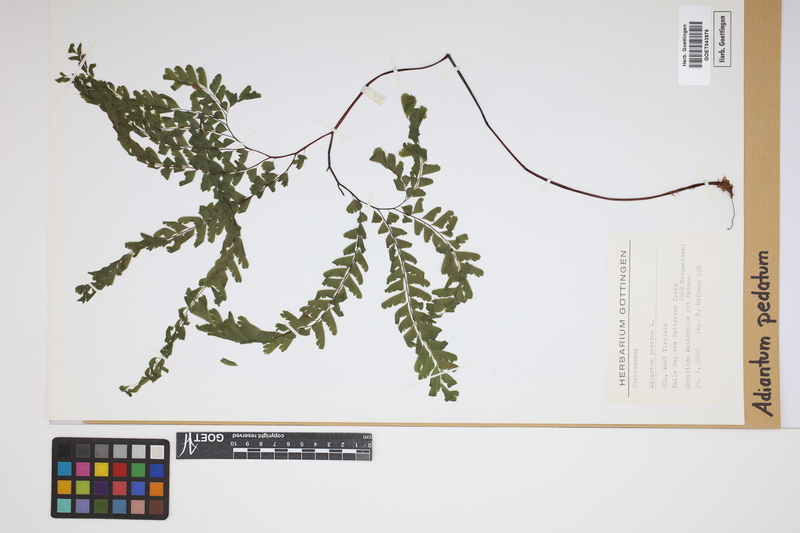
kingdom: Plantae
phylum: Tracheophyta
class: Polypodiopsida
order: Polypodiales
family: Pteridaceae
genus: Adiantum
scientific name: Adiantum pedatum
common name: Five-finger fern
